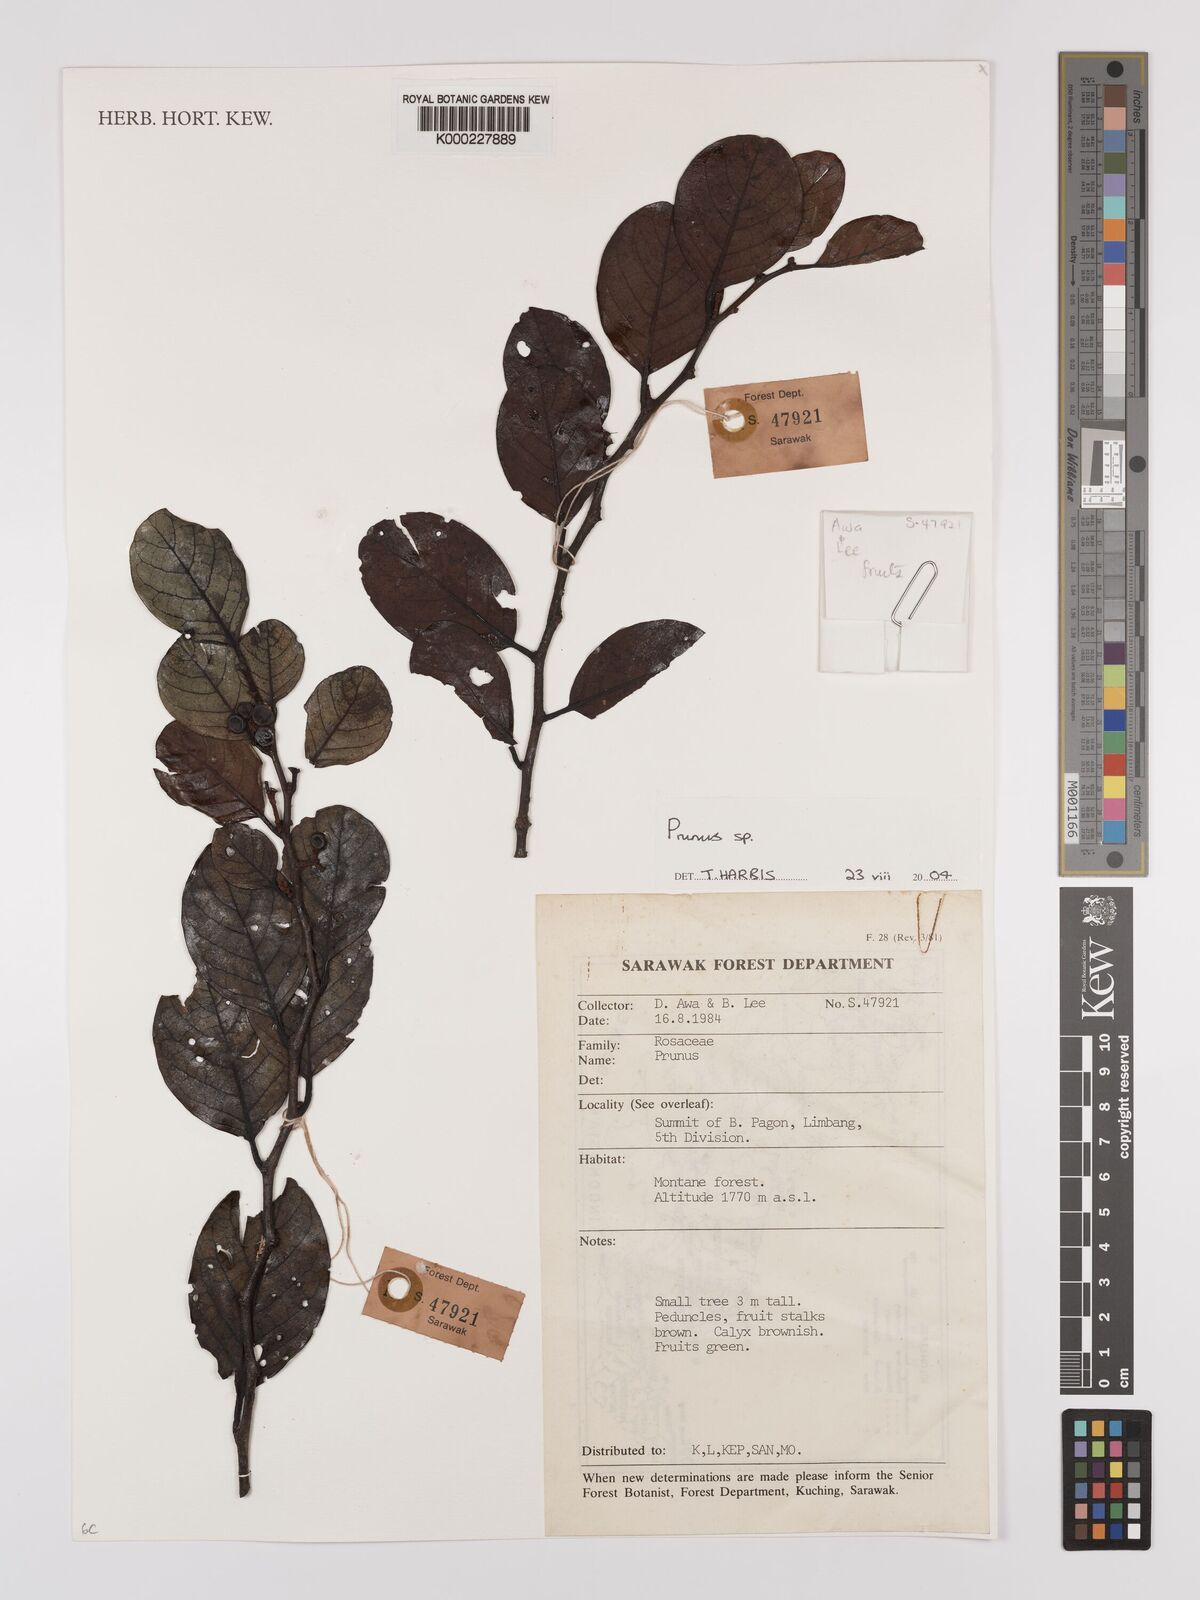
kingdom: Plantae
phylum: Tracheophyta
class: Magnoliopsida
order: Rosales
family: Rosaceae
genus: Prunus
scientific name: Prunus
